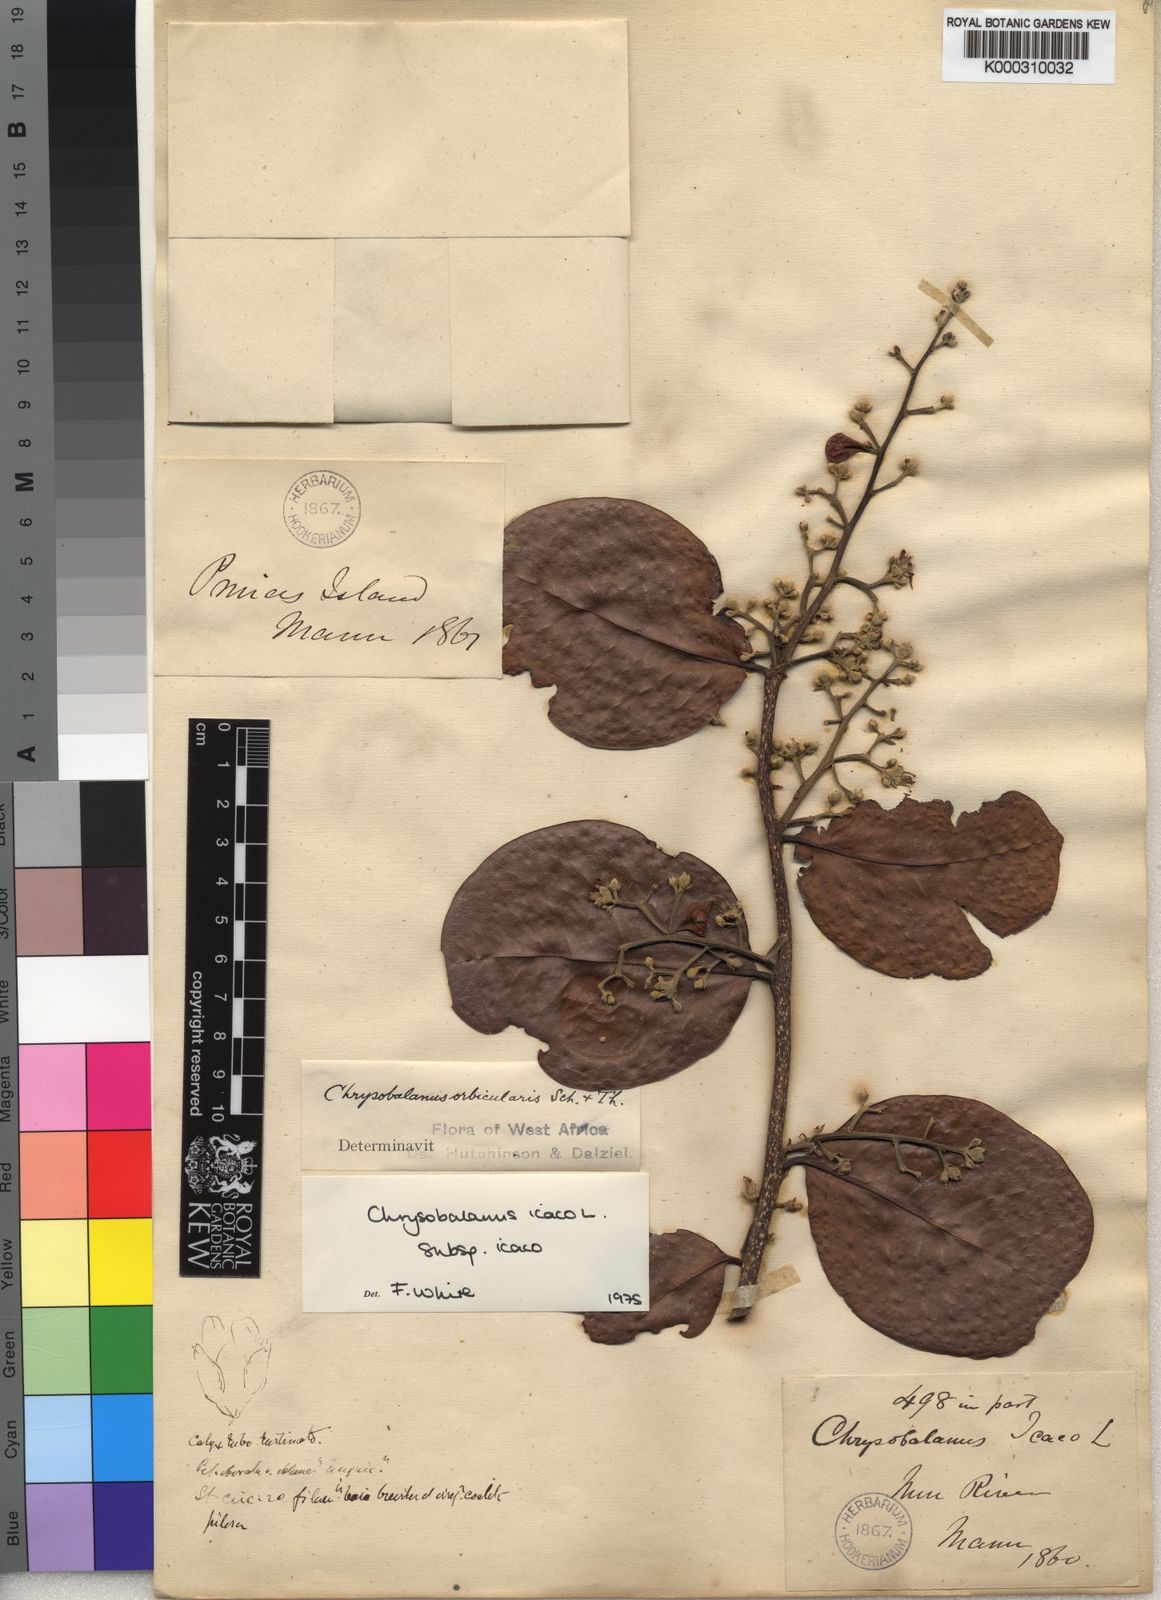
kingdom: Plantae
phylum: Tracheophyta
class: Magnoliopsida
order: Malpighiales
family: Chrysobalanaceae
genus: Chrysobalanus
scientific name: Chrysobalanus icaco
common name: Coco plum
